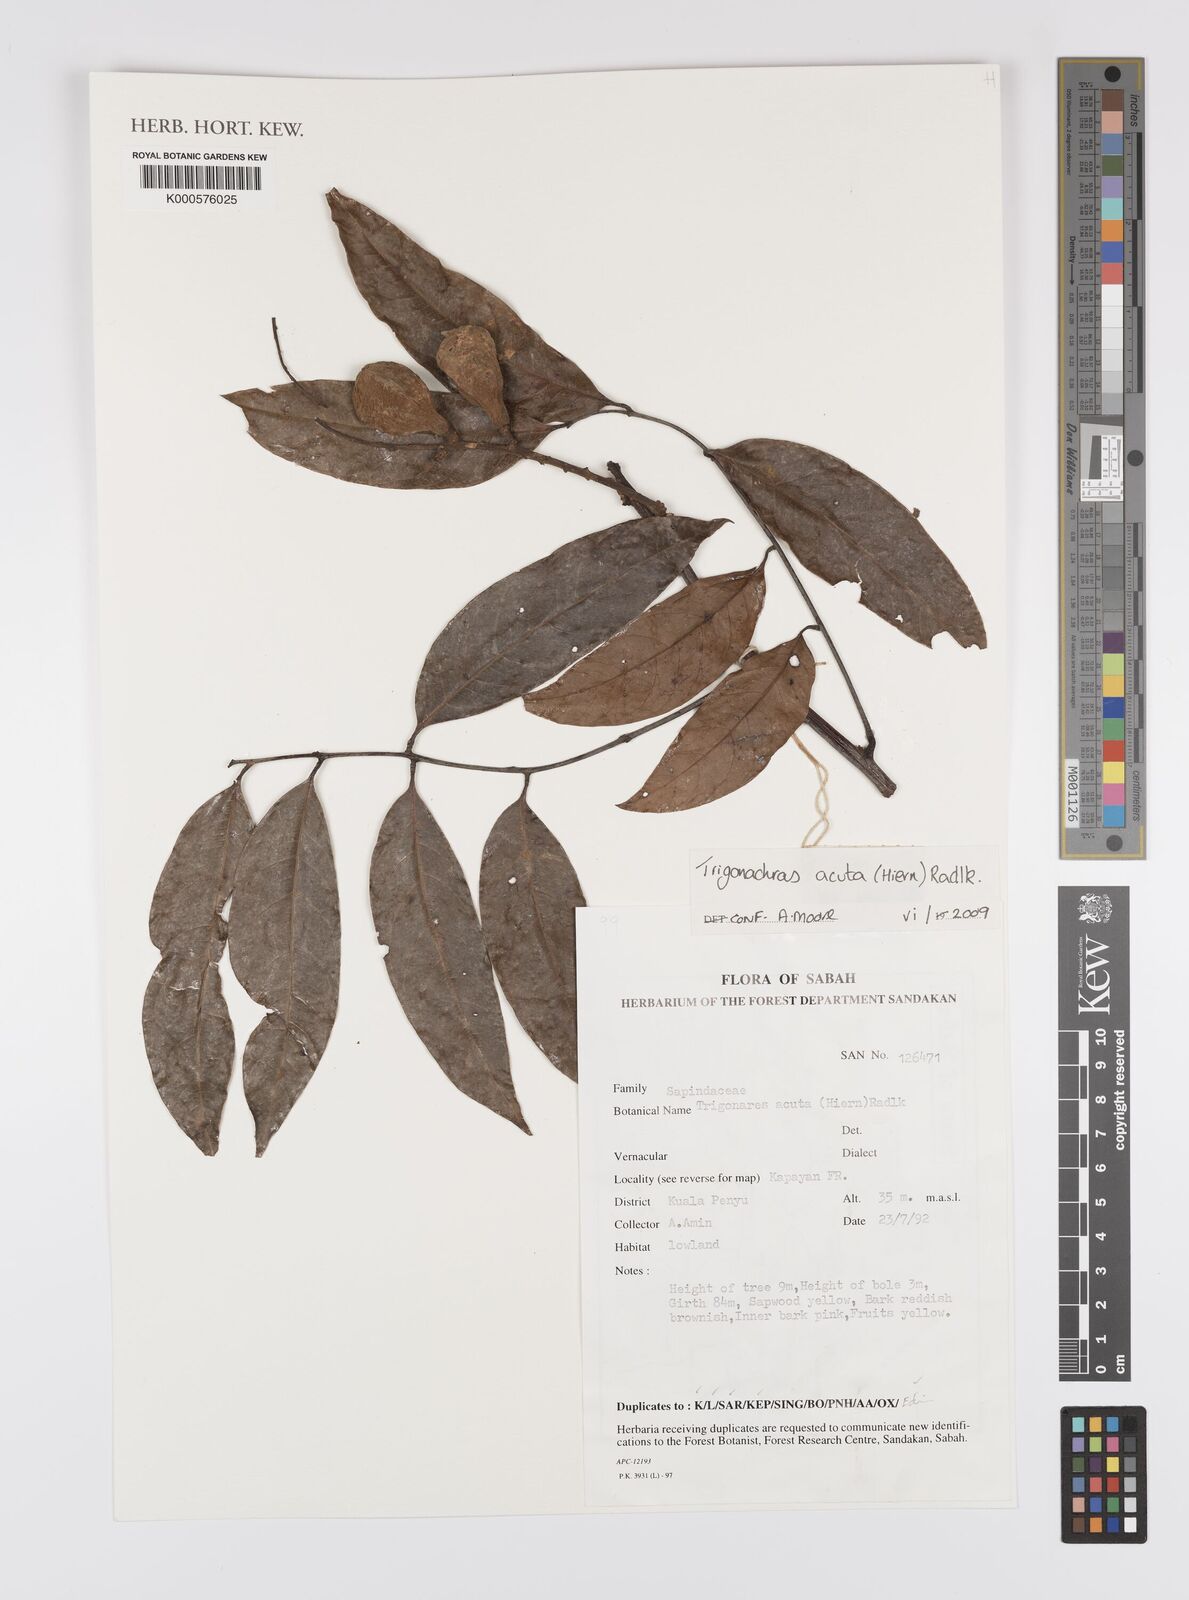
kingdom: Plantae
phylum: Tracheophyta
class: Magnoliopsida
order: Sapindales
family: Sapindaceae
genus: Trigonachras
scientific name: Trigonachras acuta
